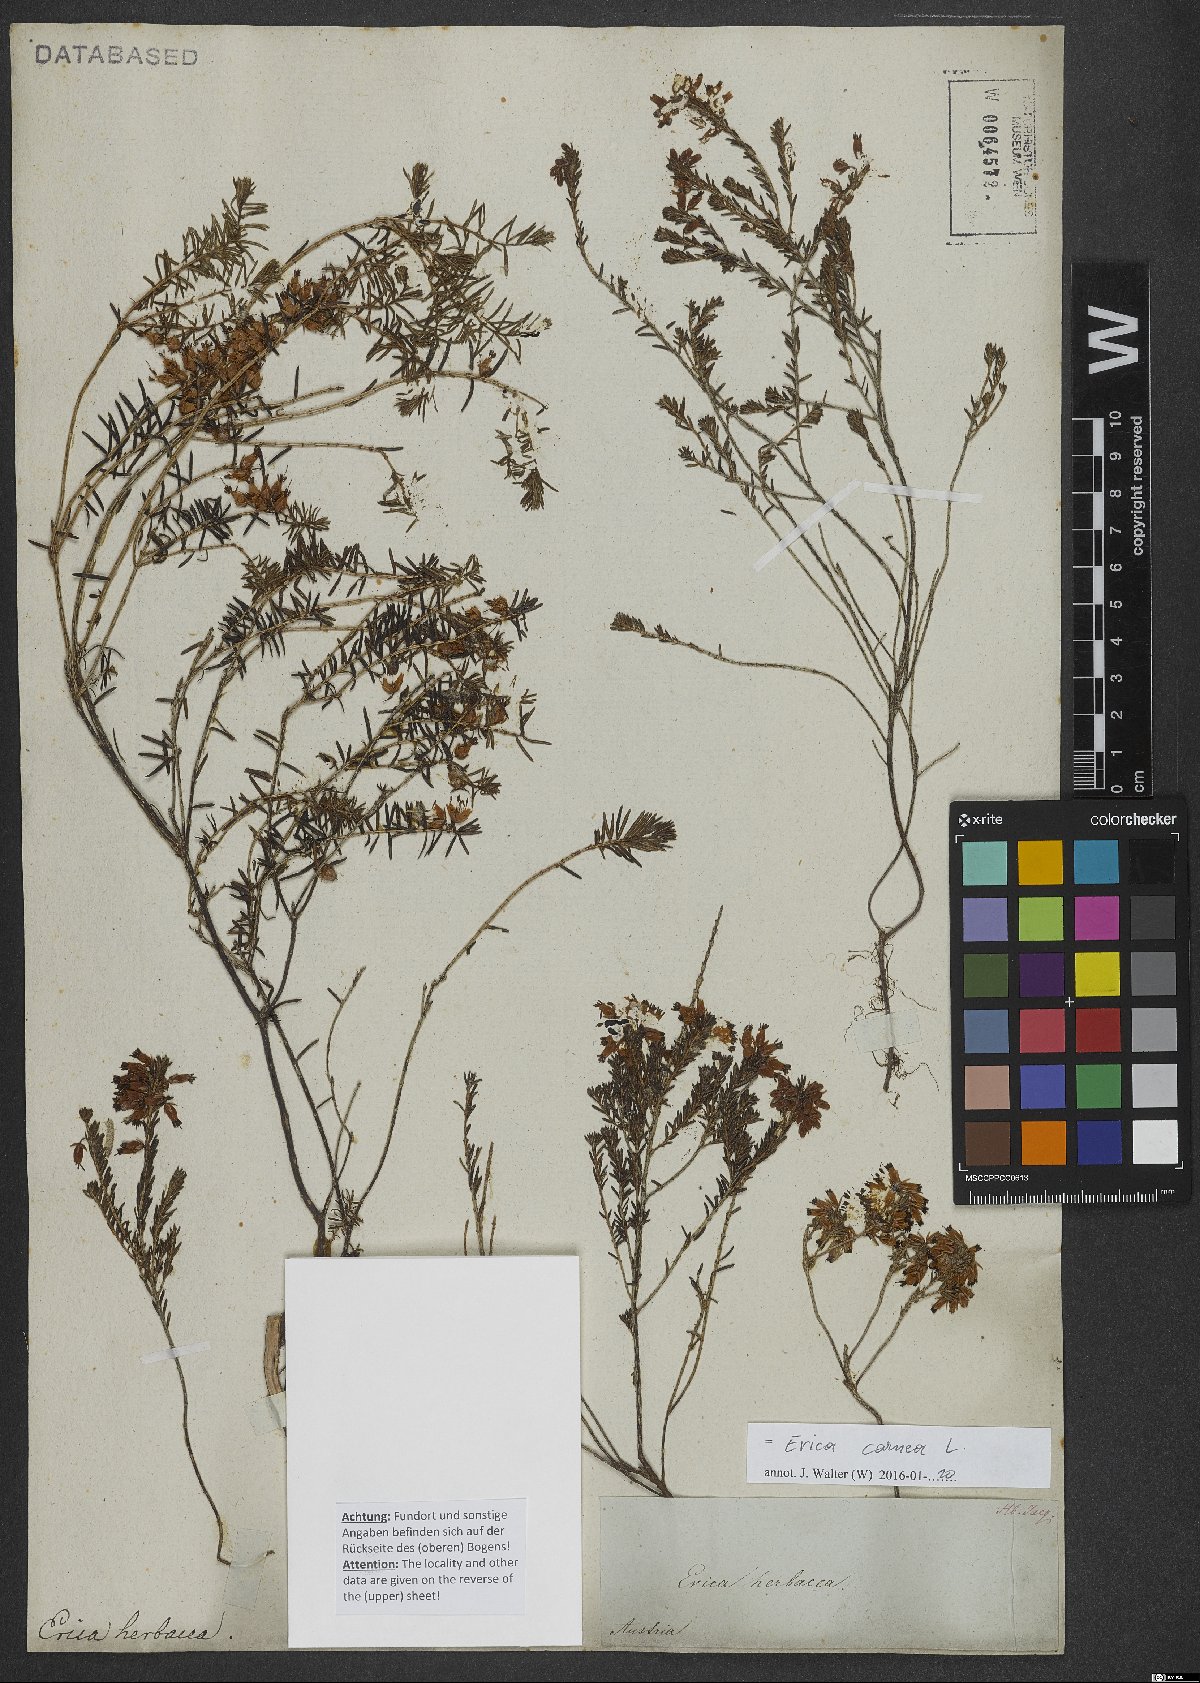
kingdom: Plantae
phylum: Tracheophyta
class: Magnoliopsida
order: Ericales
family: Ericaceae
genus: Erica
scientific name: Erica carnea
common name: Winter heath
